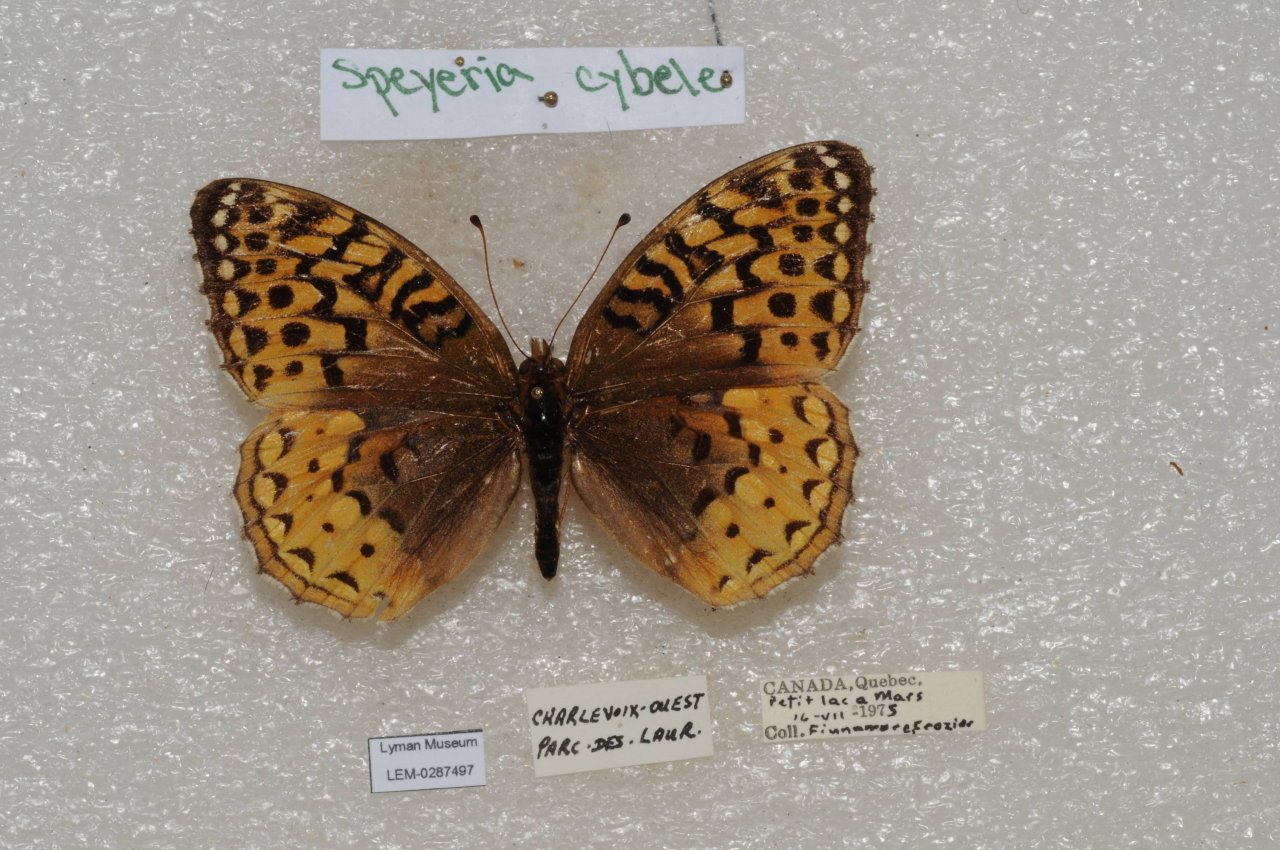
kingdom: Animalia
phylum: Arthropoda
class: Insecta
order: Lepidoptera
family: Nymphalidae
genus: Speyeria
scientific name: Speyeria cybele
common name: Great Spangled Fritillary
